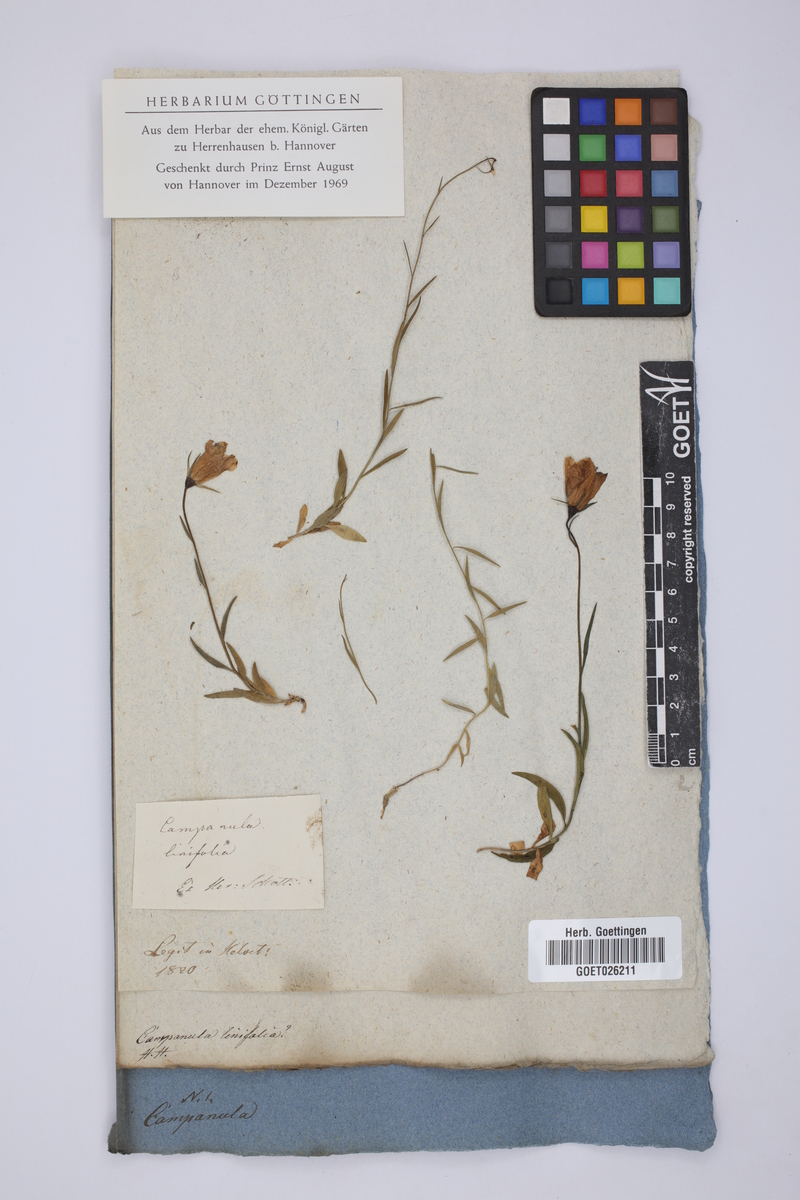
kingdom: Plantae
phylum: Tracheophyta
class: Magnoliopsida
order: Asterales
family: Campanulaceae
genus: Campanula
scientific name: Campanula
